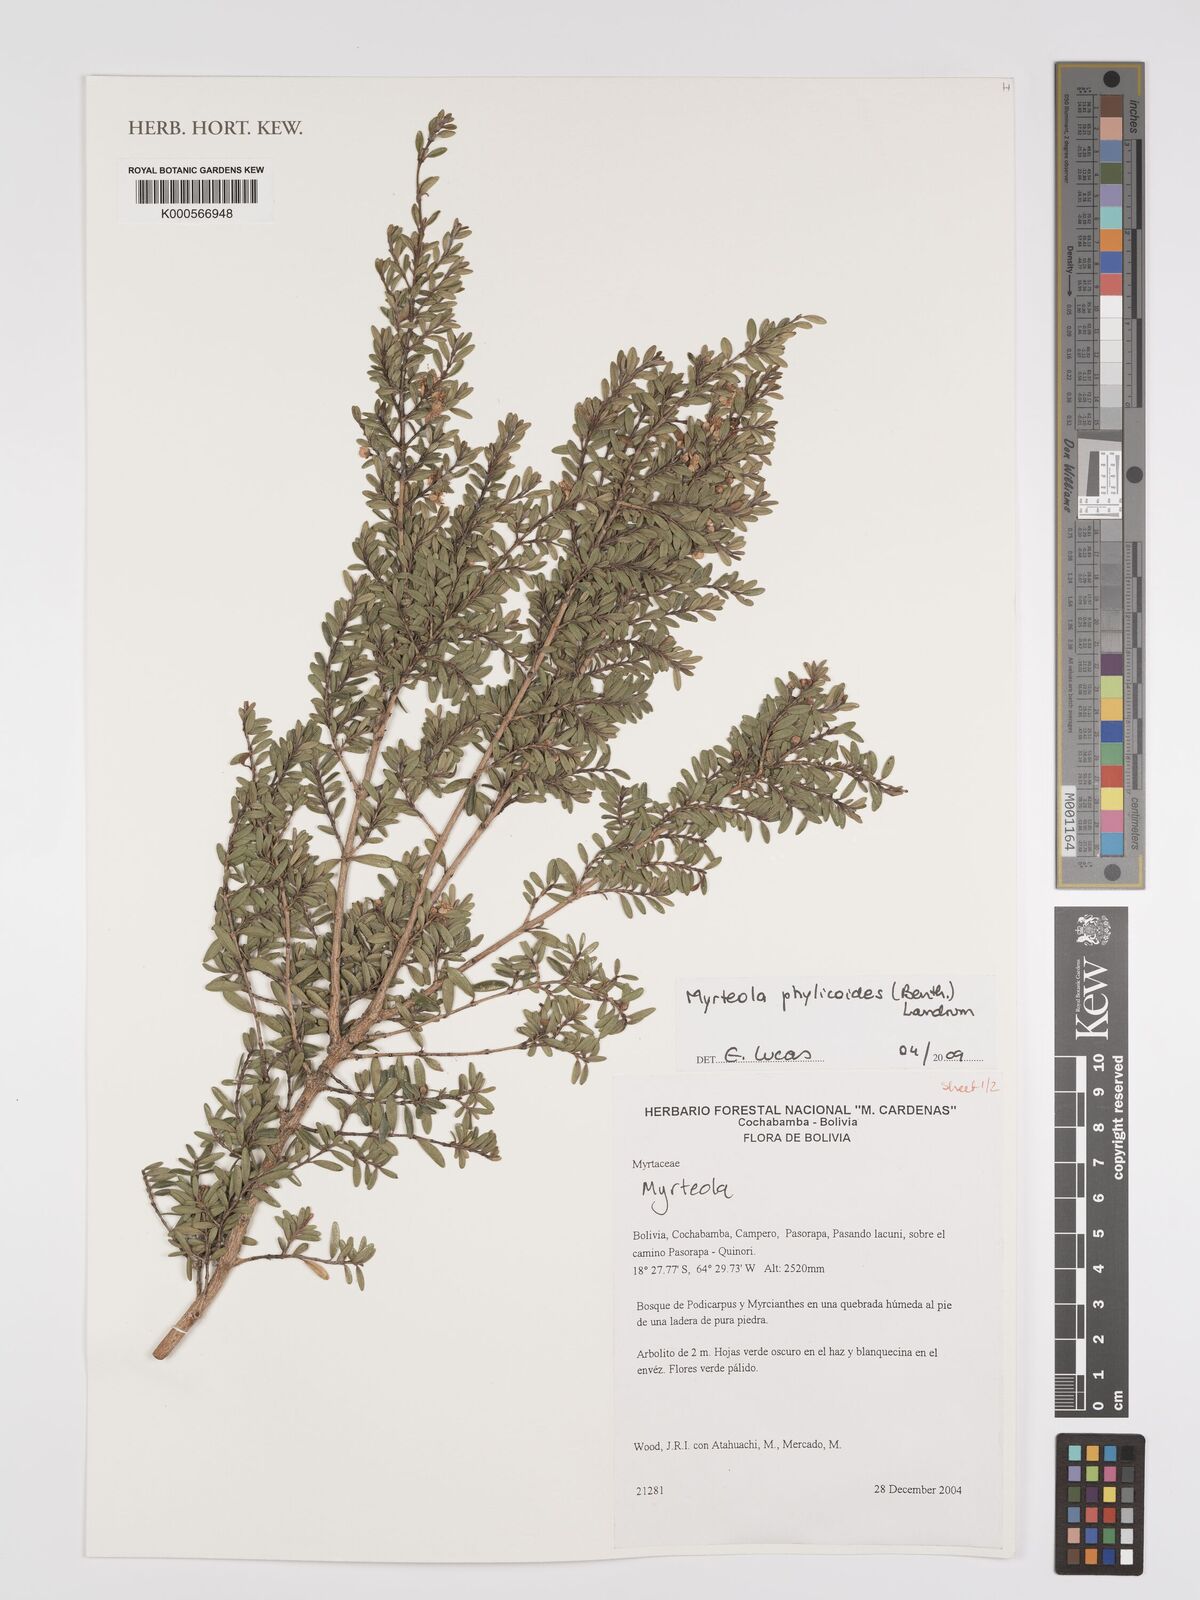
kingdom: Plantae
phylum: Tracheophyta
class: Magnoliopsida
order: Myrtales
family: Myrtaceae
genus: Myrteola
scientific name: Myrteola phylicoides
